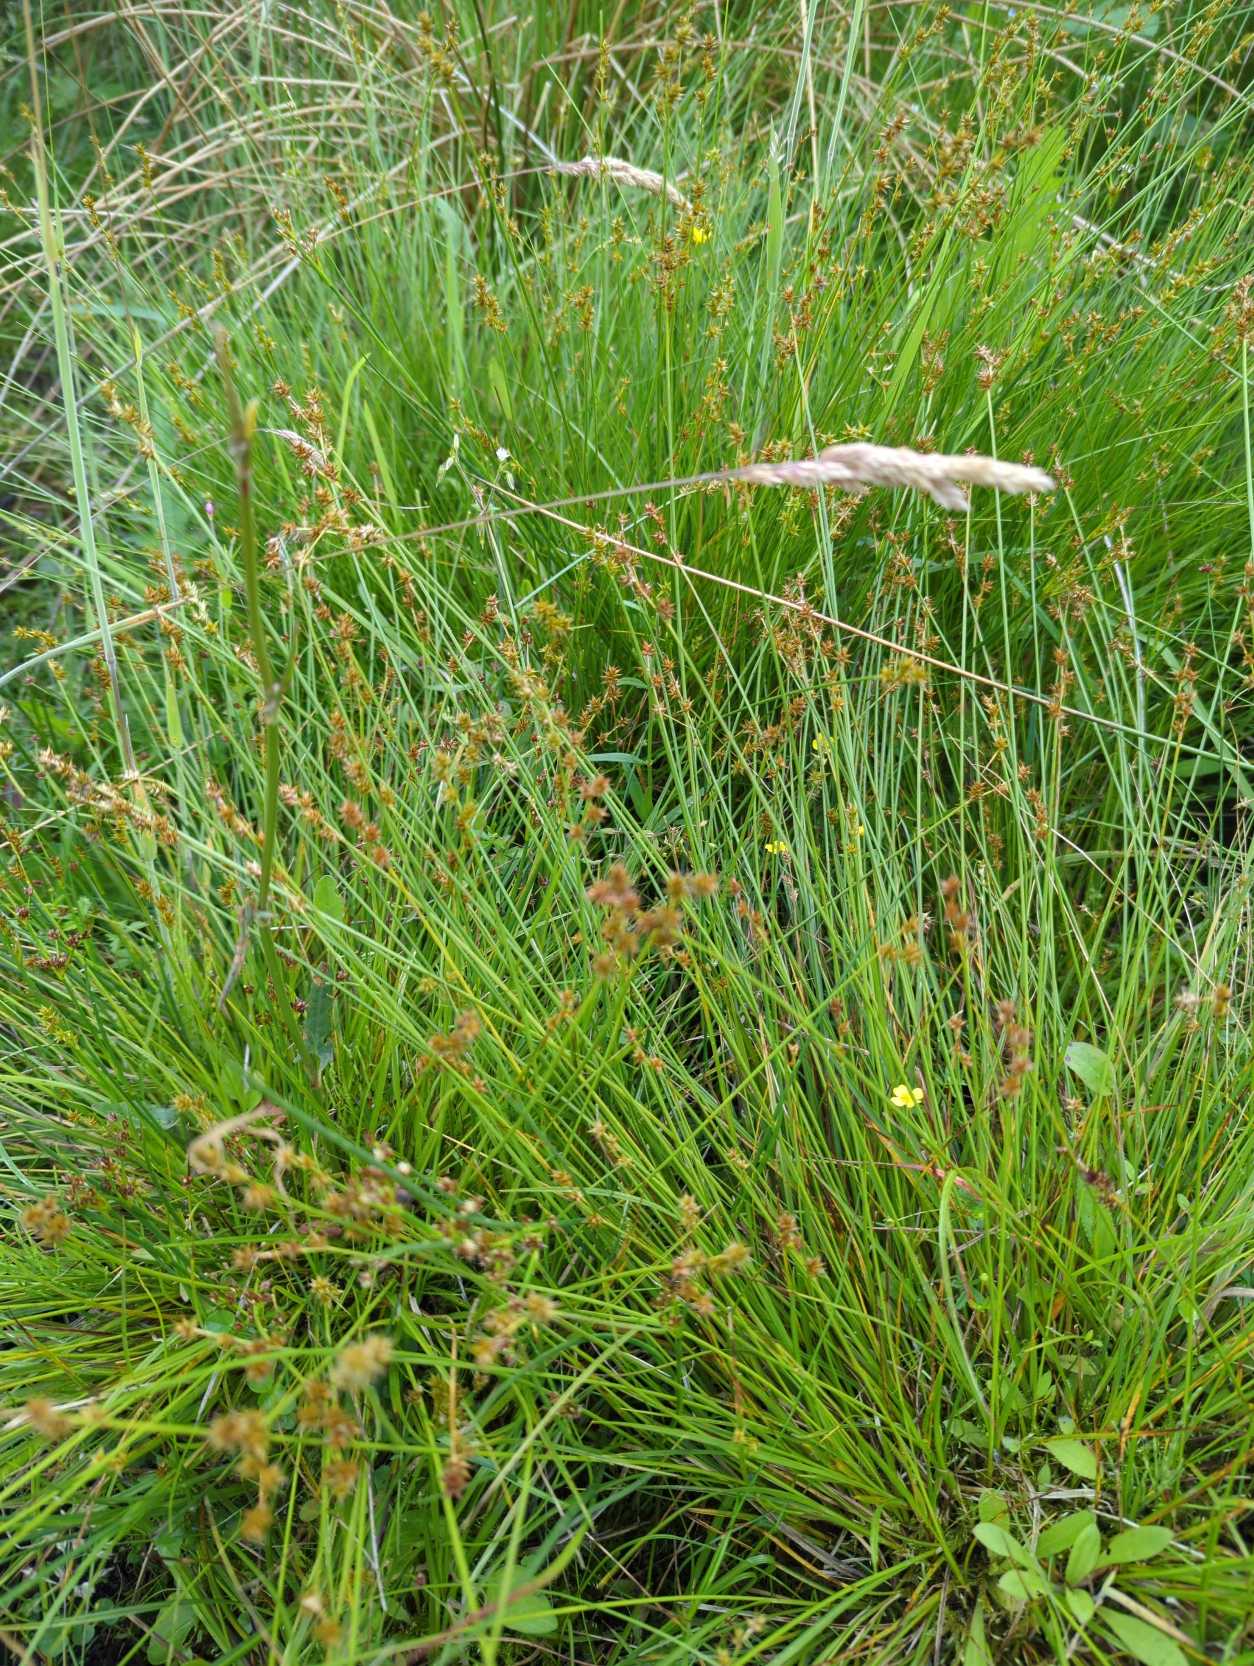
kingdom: Plantae
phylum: Tracheophyta
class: Liliopsida
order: Poales
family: Cyperaceae
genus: Carex
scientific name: Carex echinata
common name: Stjerne-star
